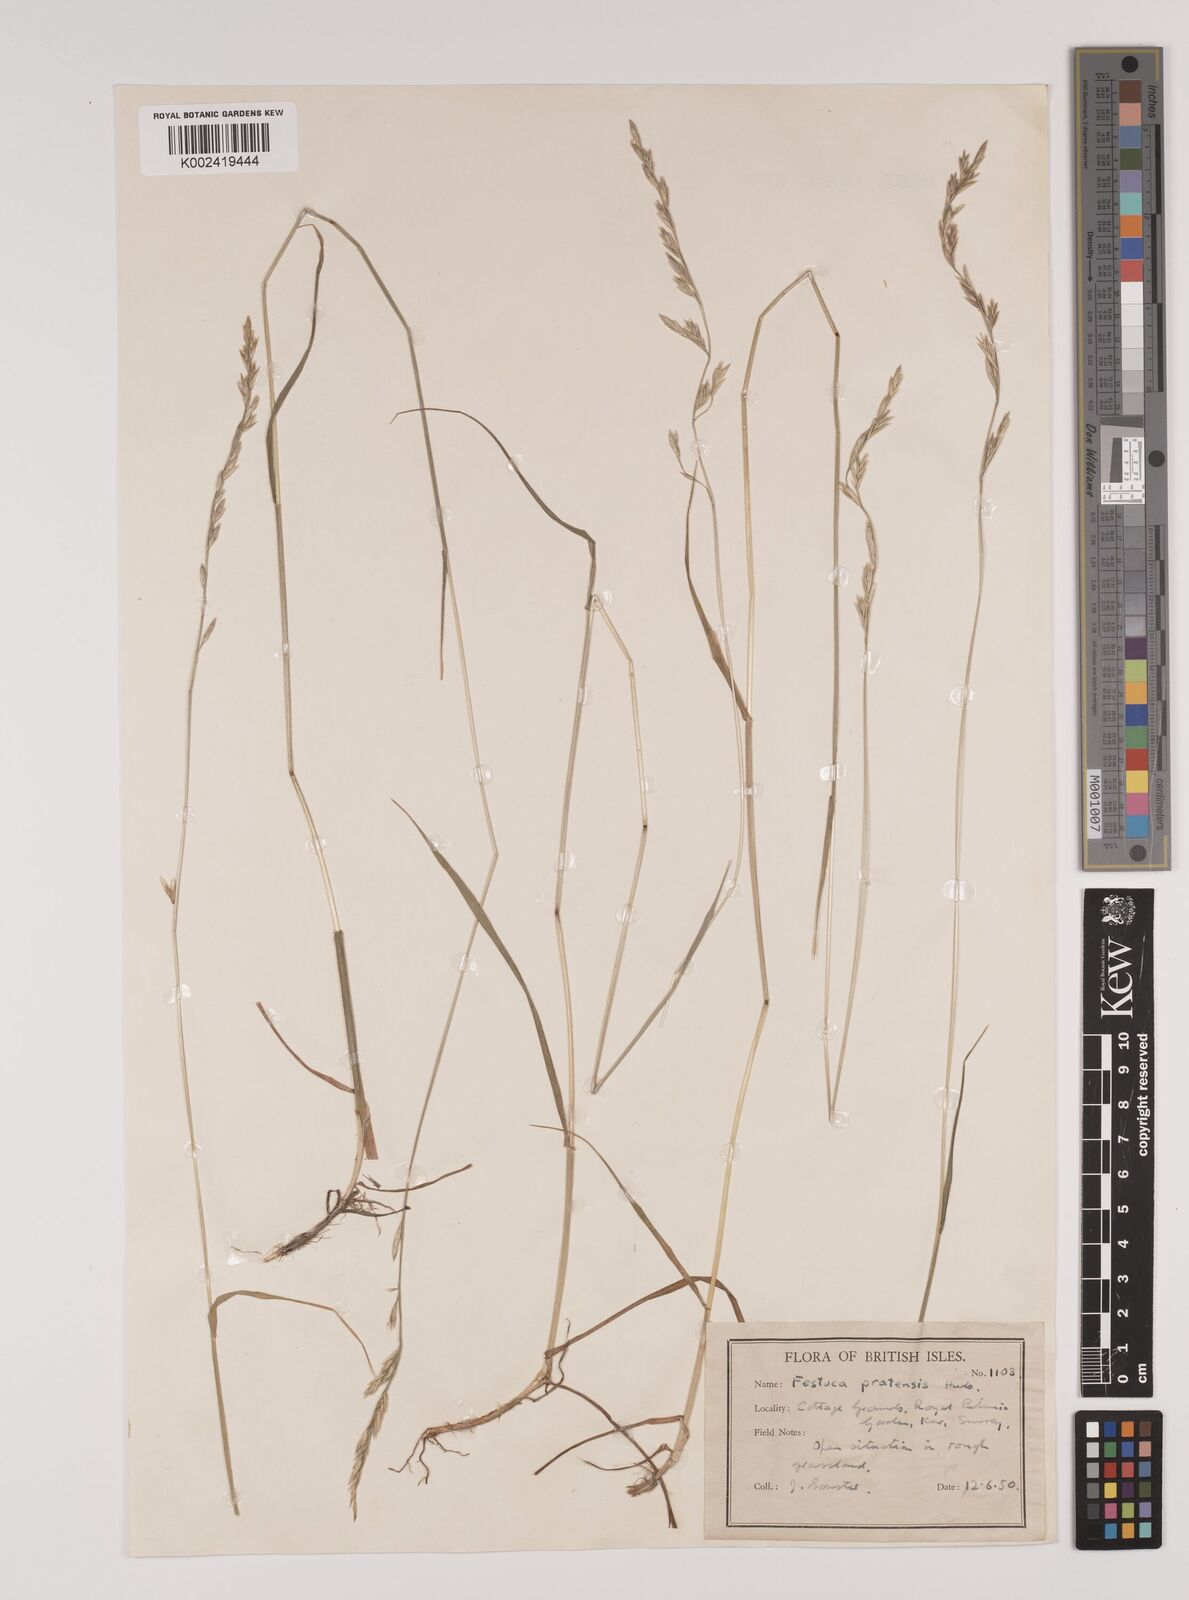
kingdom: Plantae
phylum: Tracheophyta
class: Liliopsida
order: Poales
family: Poaceae
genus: Lolium
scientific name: Lolium pratense
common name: Dover grass
